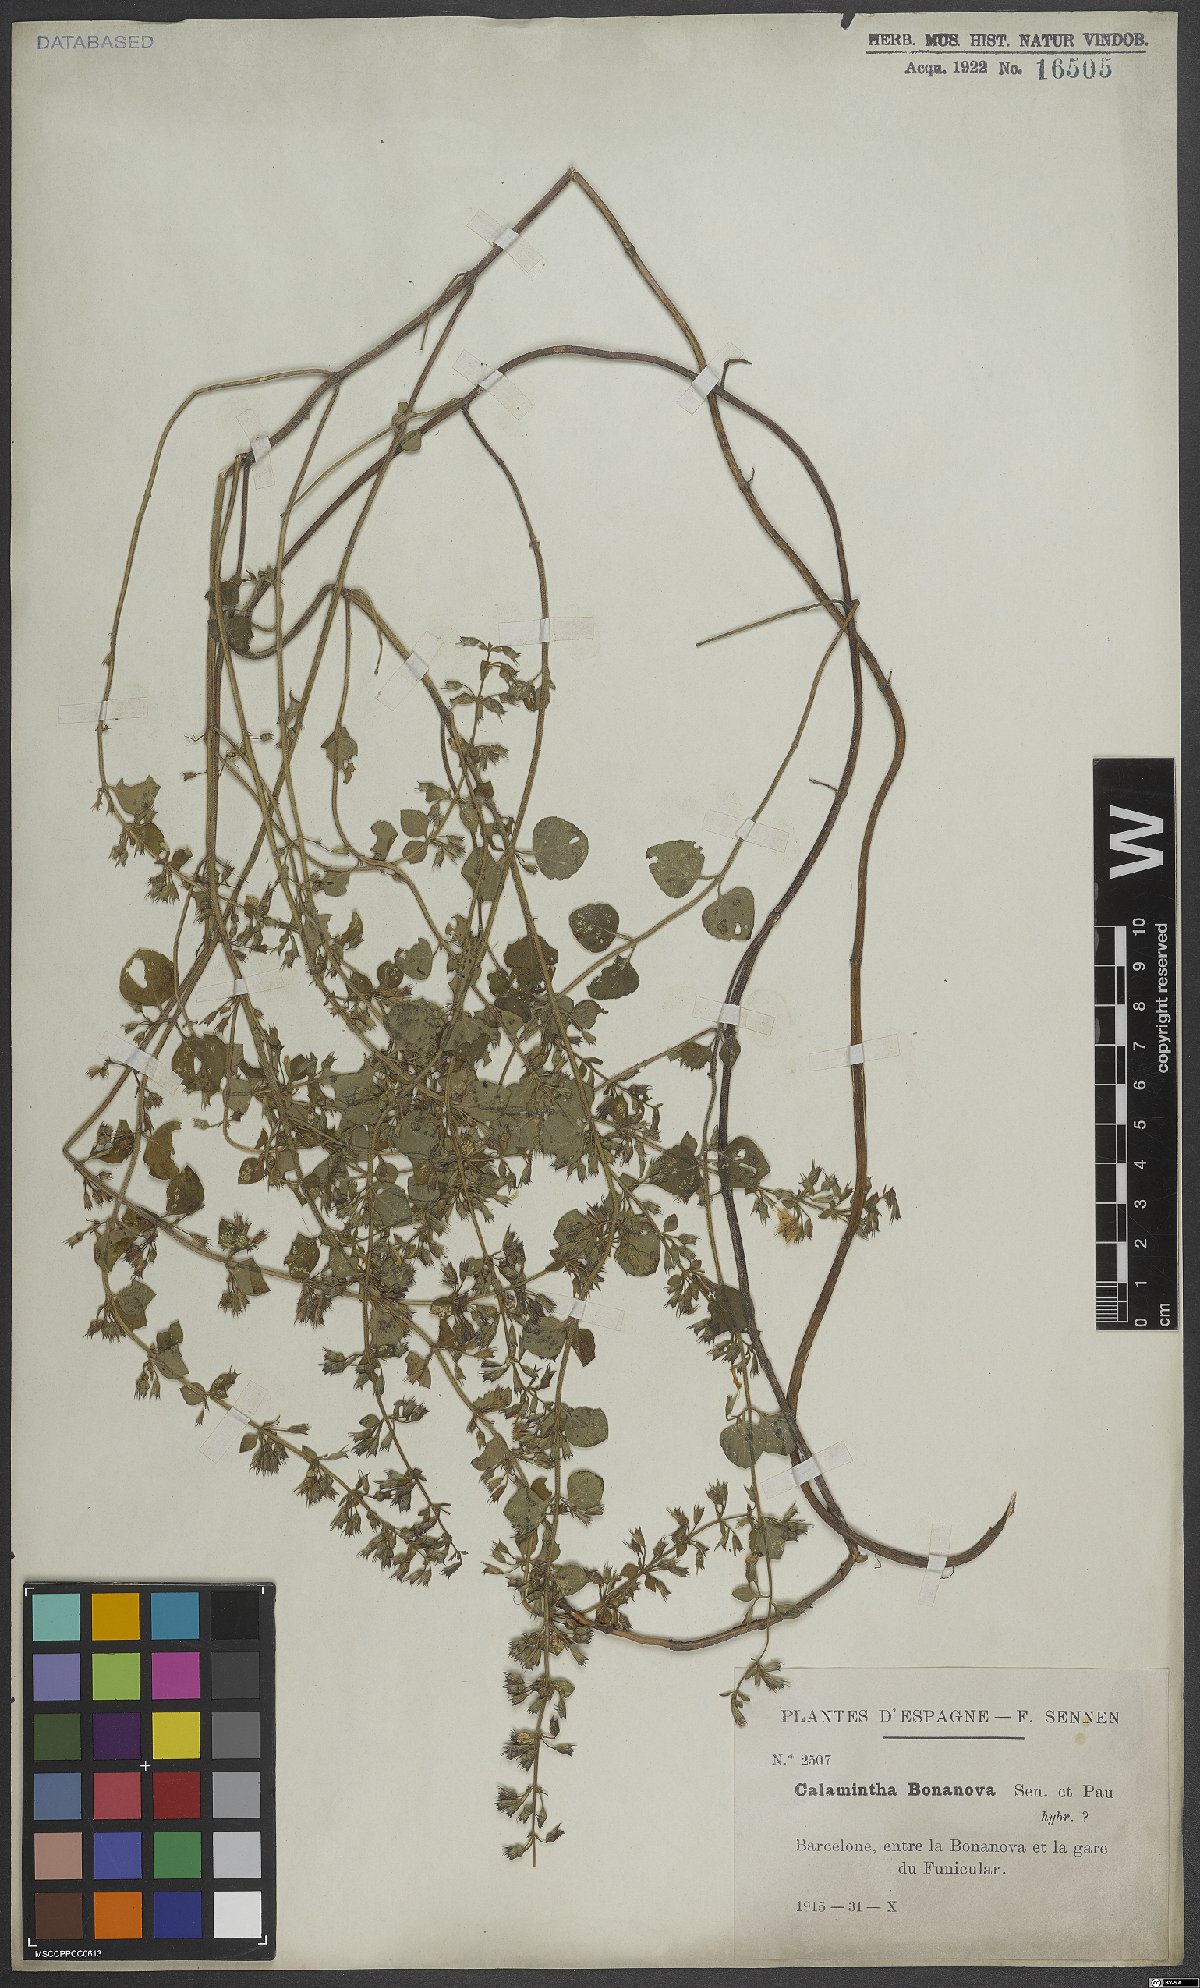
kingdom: Plantae
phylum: Tracheophyta
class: Magnoliopsida
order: Lamiales
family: Lamiaceae
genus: Clinopodium
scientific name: Clinopodium nepeta
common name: Lesser calamint
